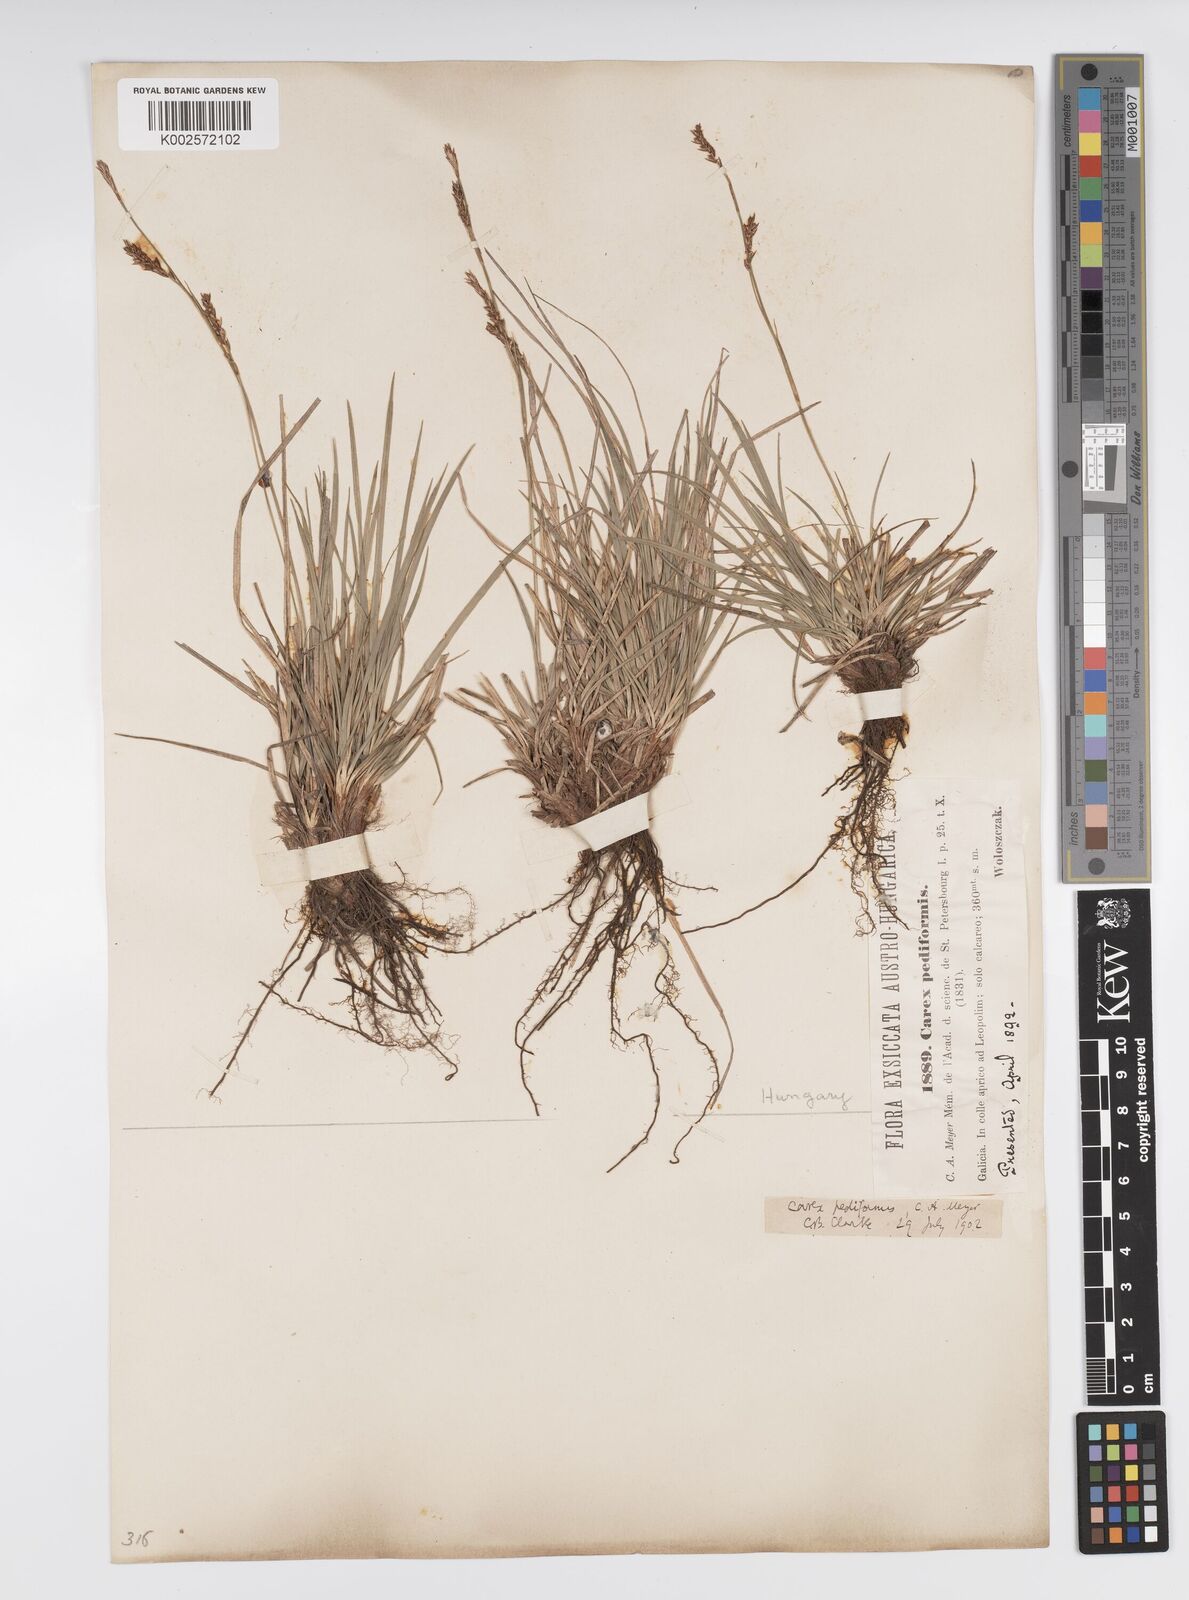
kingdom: Plantae
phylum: Tracheophyta
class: Liliopsida
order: Poales
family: Cyperaceae
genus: Carex
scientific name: Carex pediformis
